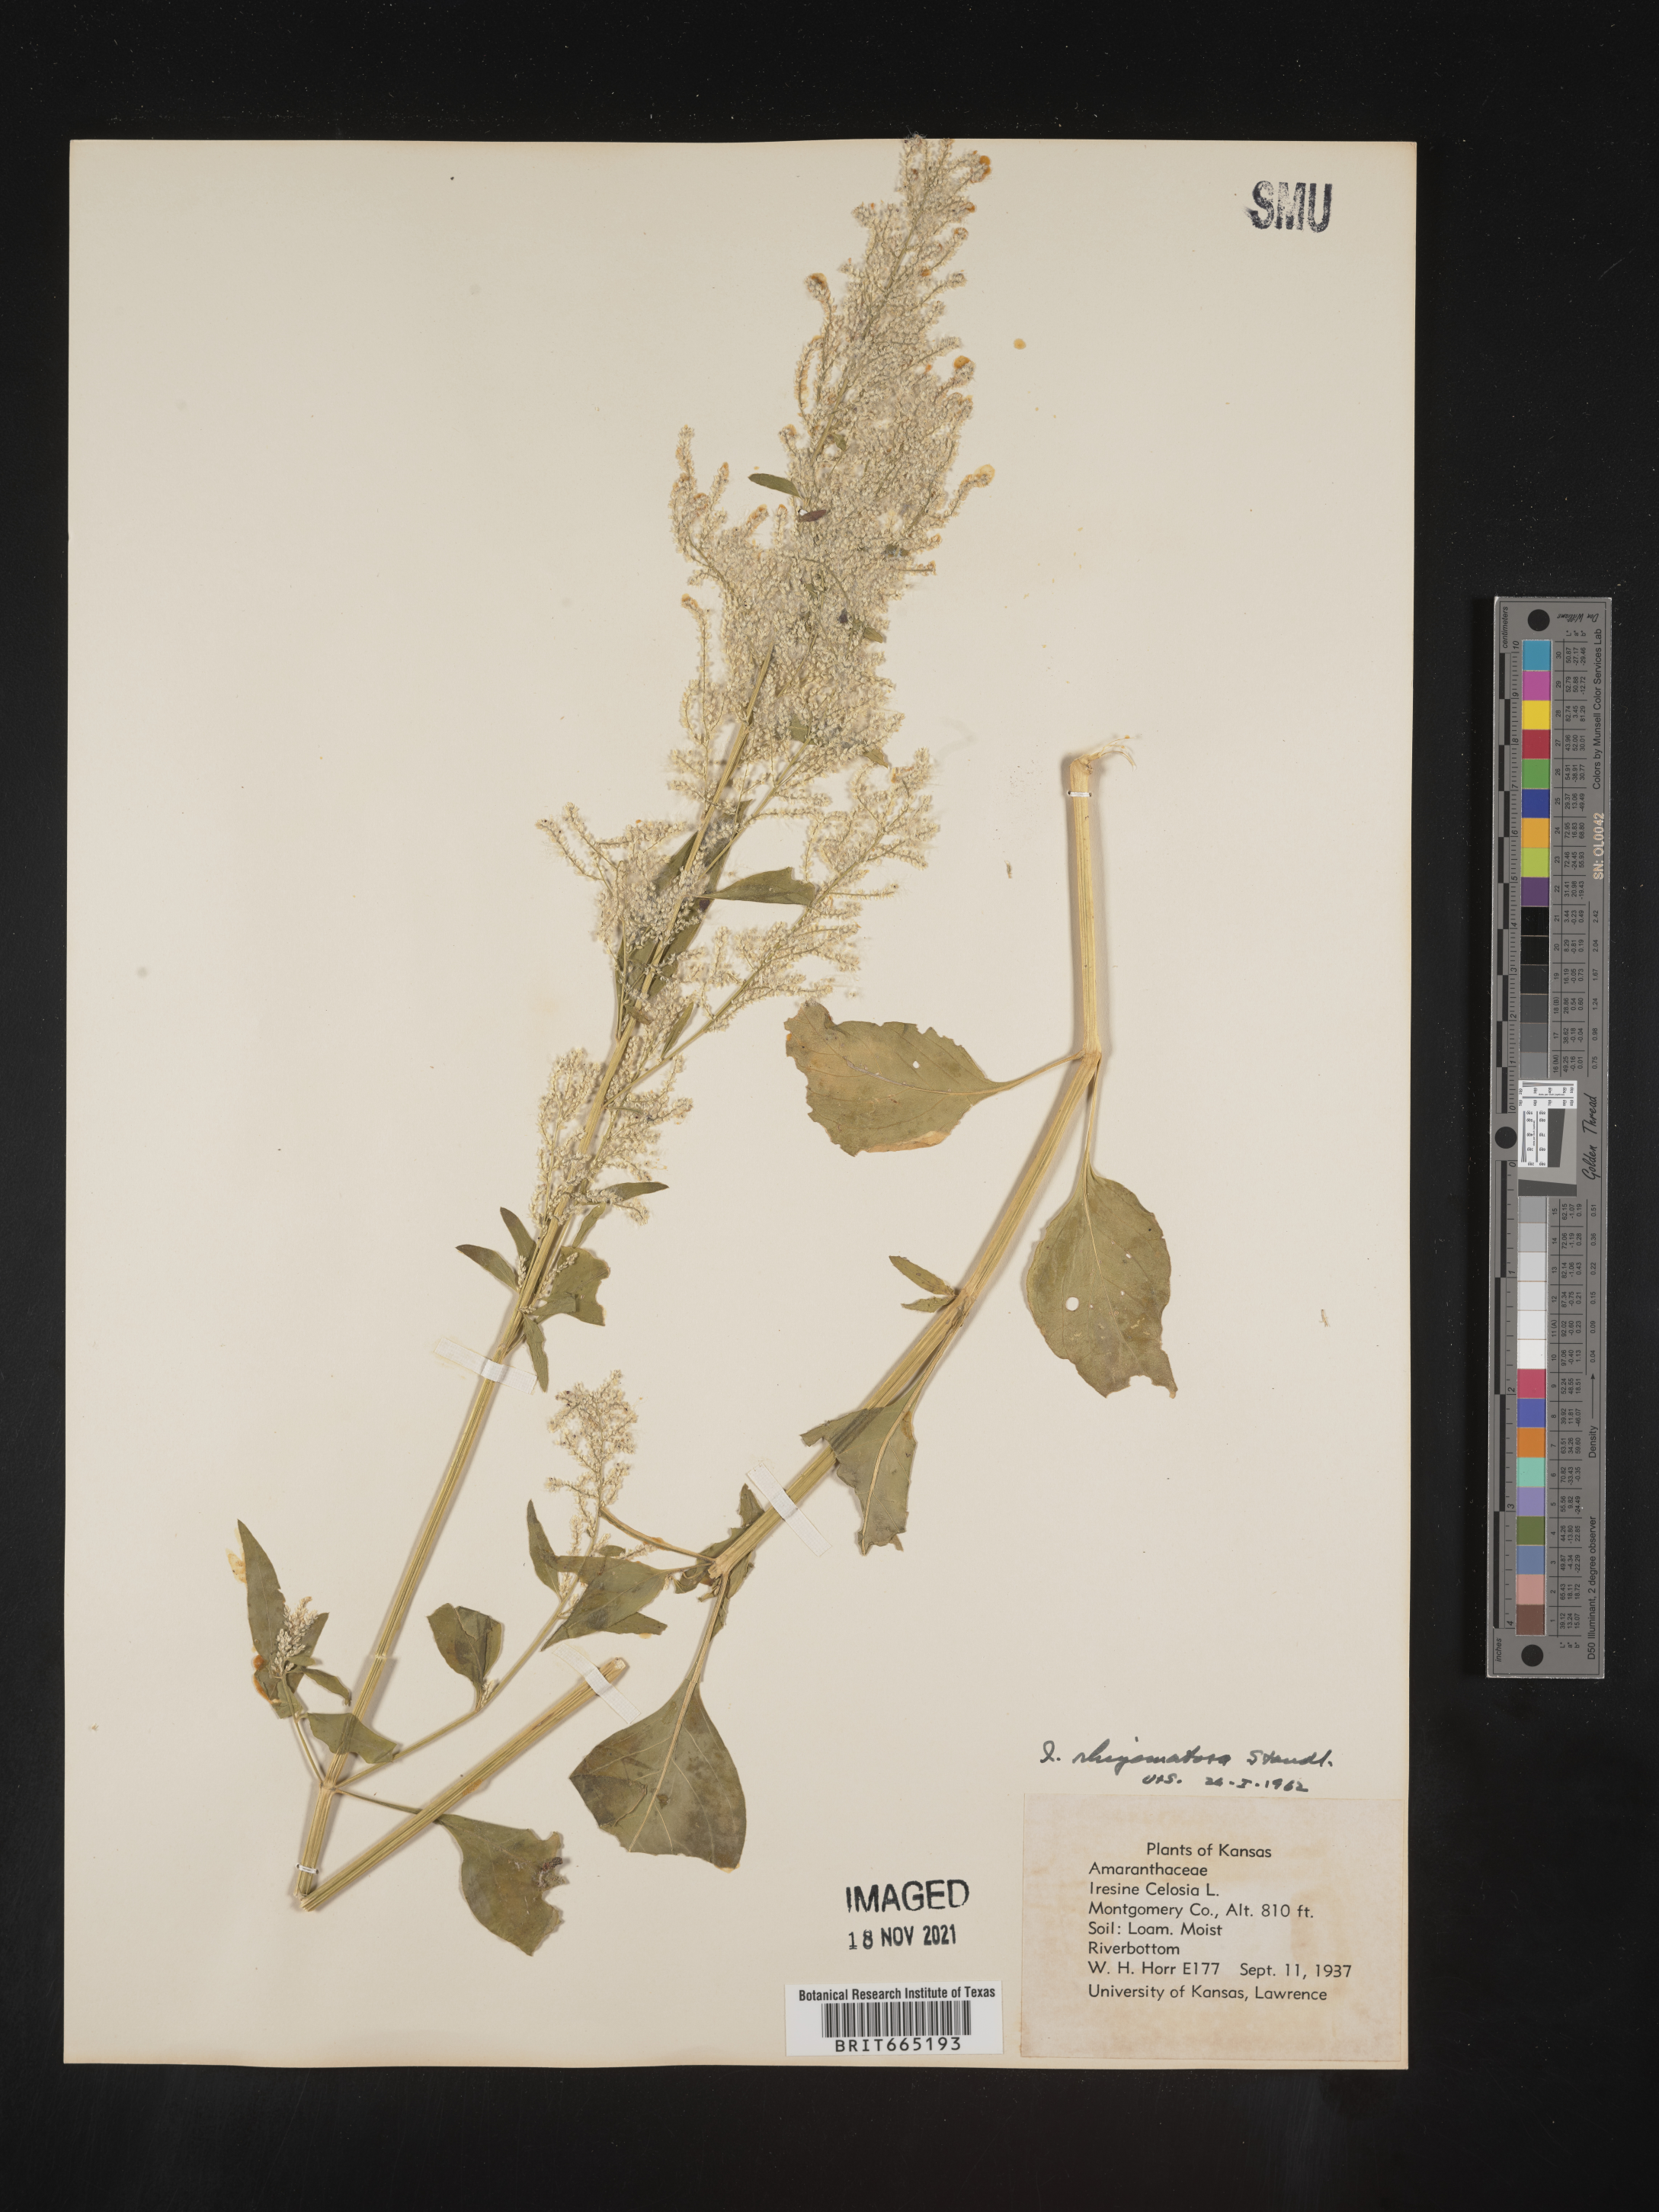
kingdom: Plantae
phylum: Tracheophyta
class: Magnoliopsida
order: Caryophyllales
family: Amaranthaceae
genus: Iresine
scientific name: Iresine rhizomatosa
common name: Juda's-bush
